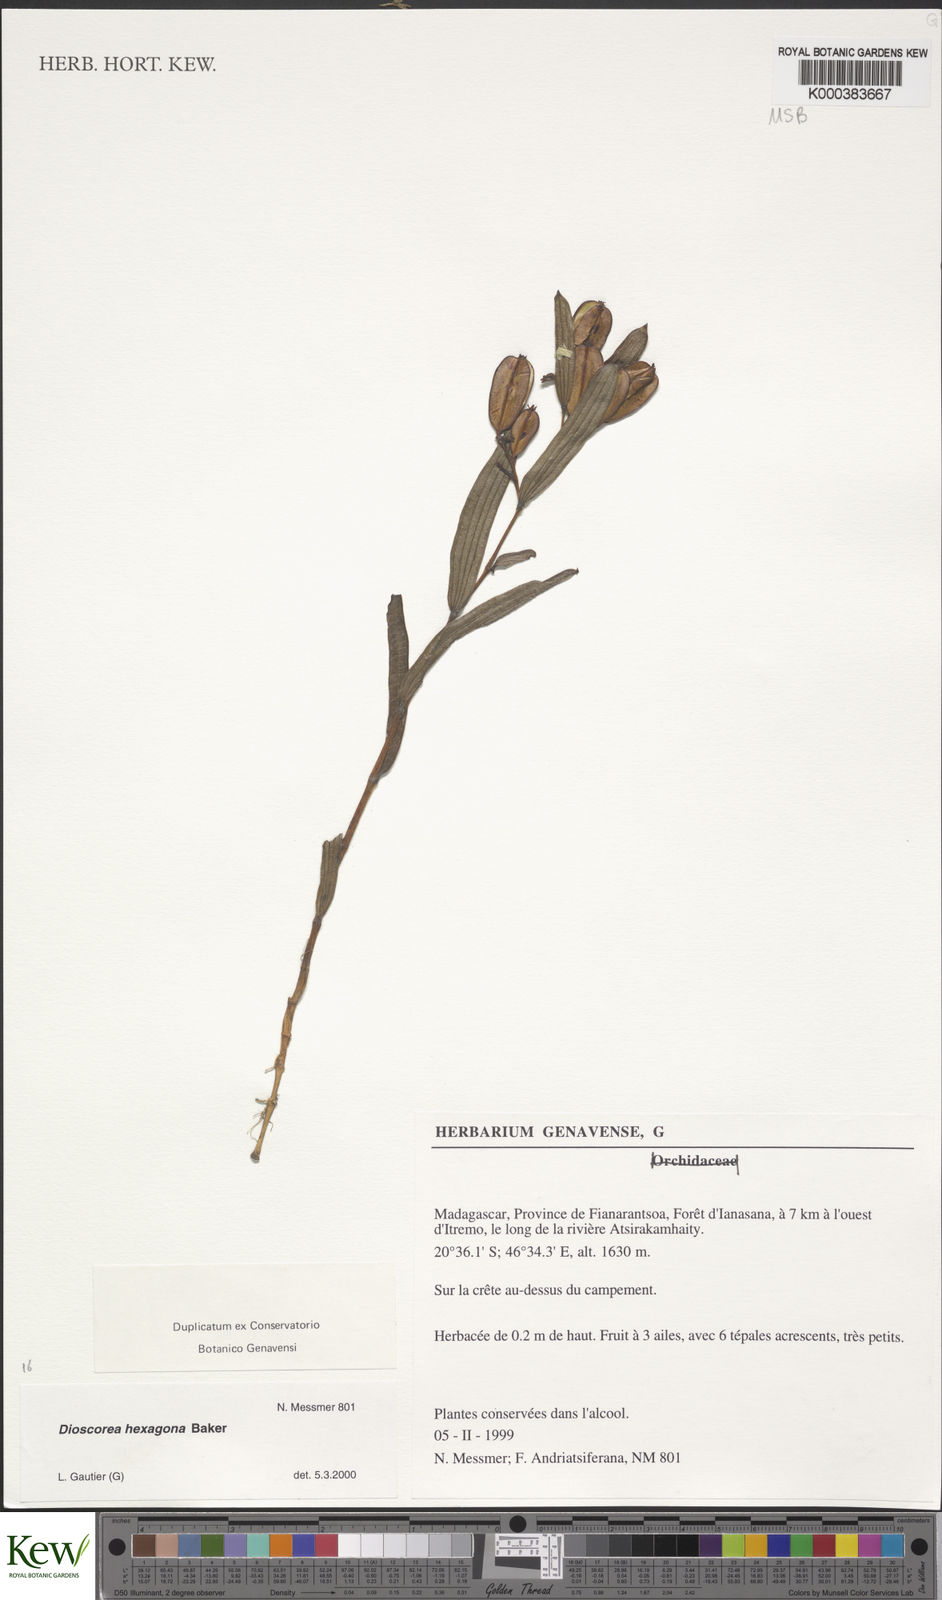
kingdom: Plantae
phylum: Tracheophyta
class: Liliopsida
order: Dioscoreales
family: Dioscoreaceae
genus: Dioscorea
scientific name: Dioscorea hexagona
